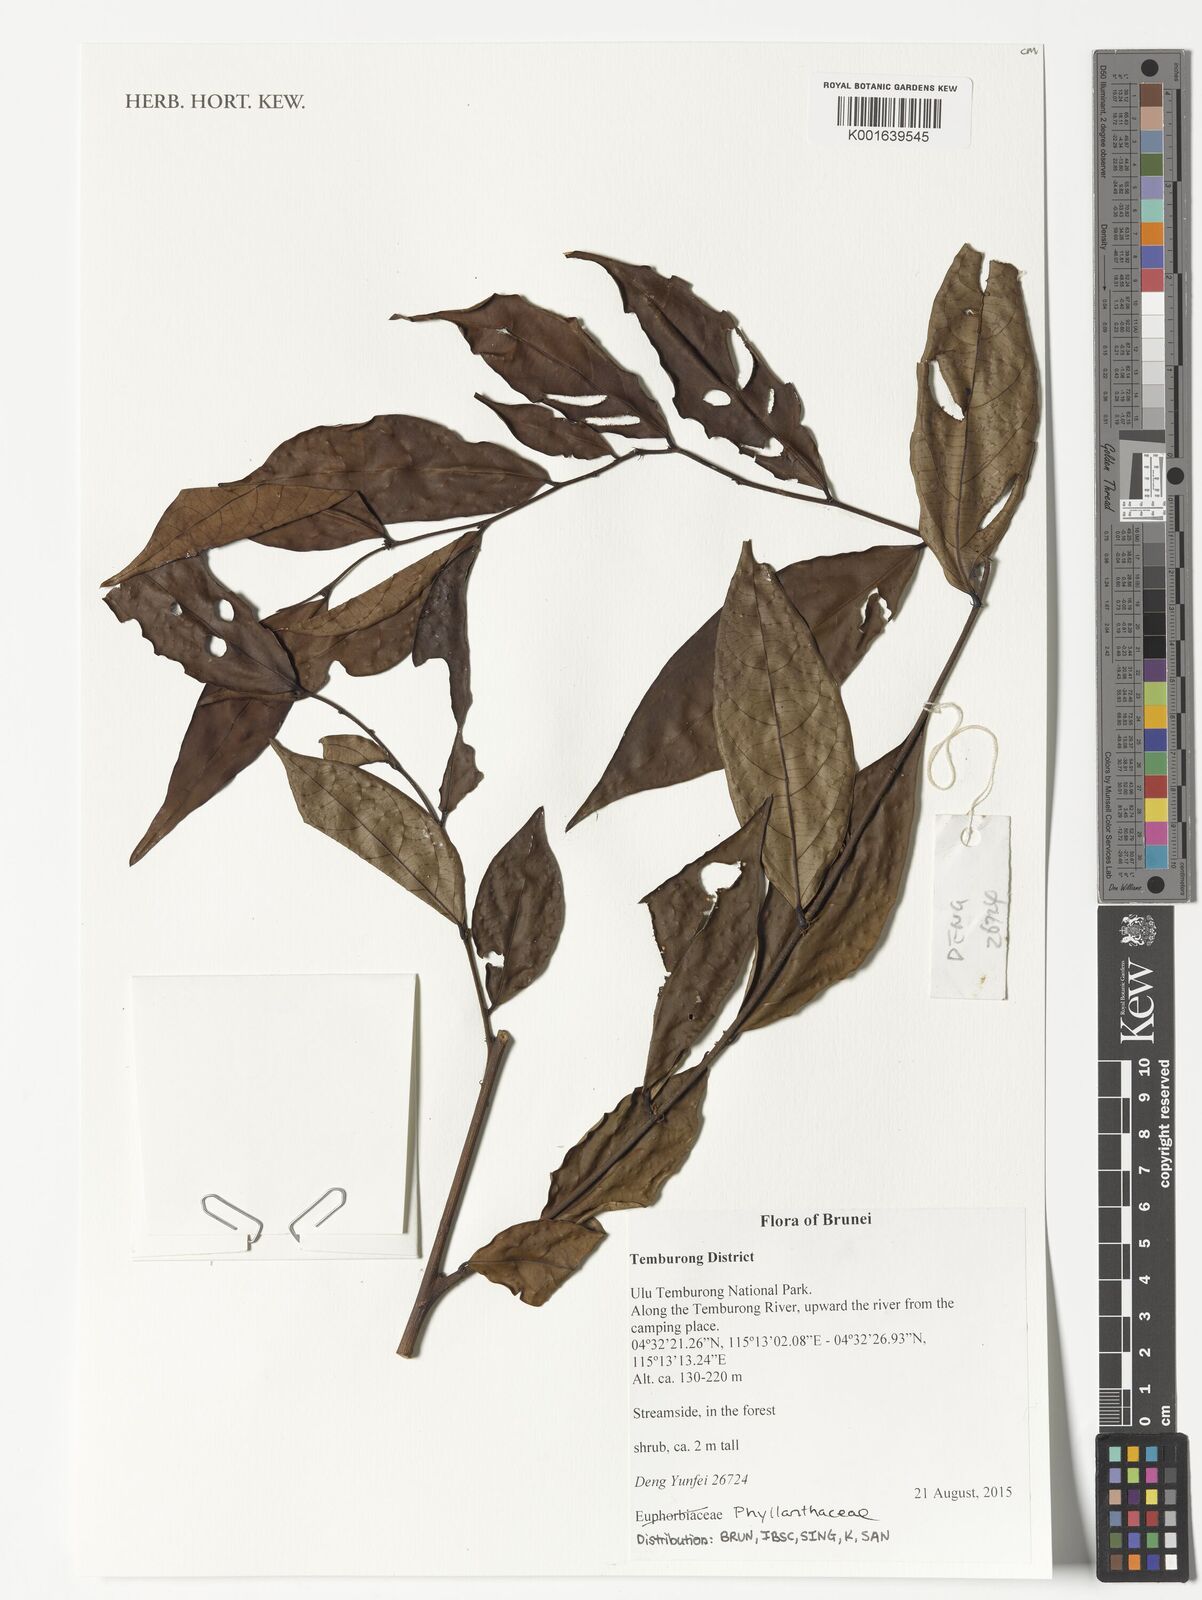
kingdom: Plantae
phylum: Tracheophyta
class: Magnoliopsida
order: Malpighiales
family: Phyllanthaceae
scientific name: Phyllanthaceae
